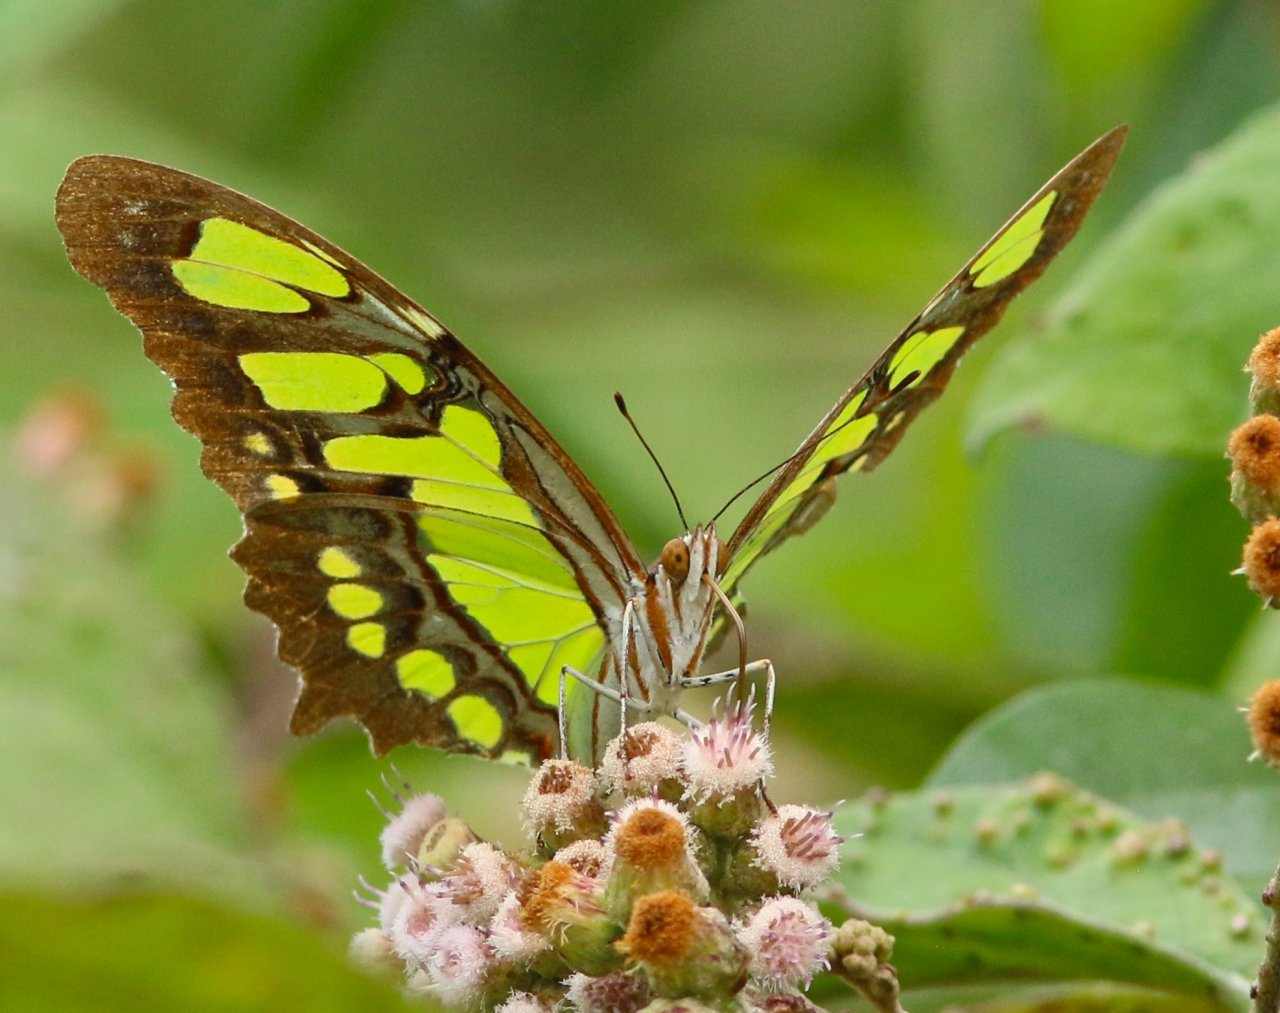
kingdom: Animalia
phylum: Arthropoda
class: Insecta
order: Lepidoptera
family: Nymphalidae
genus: Siproeta
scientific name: Siproeta stelenes
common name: Malachite
